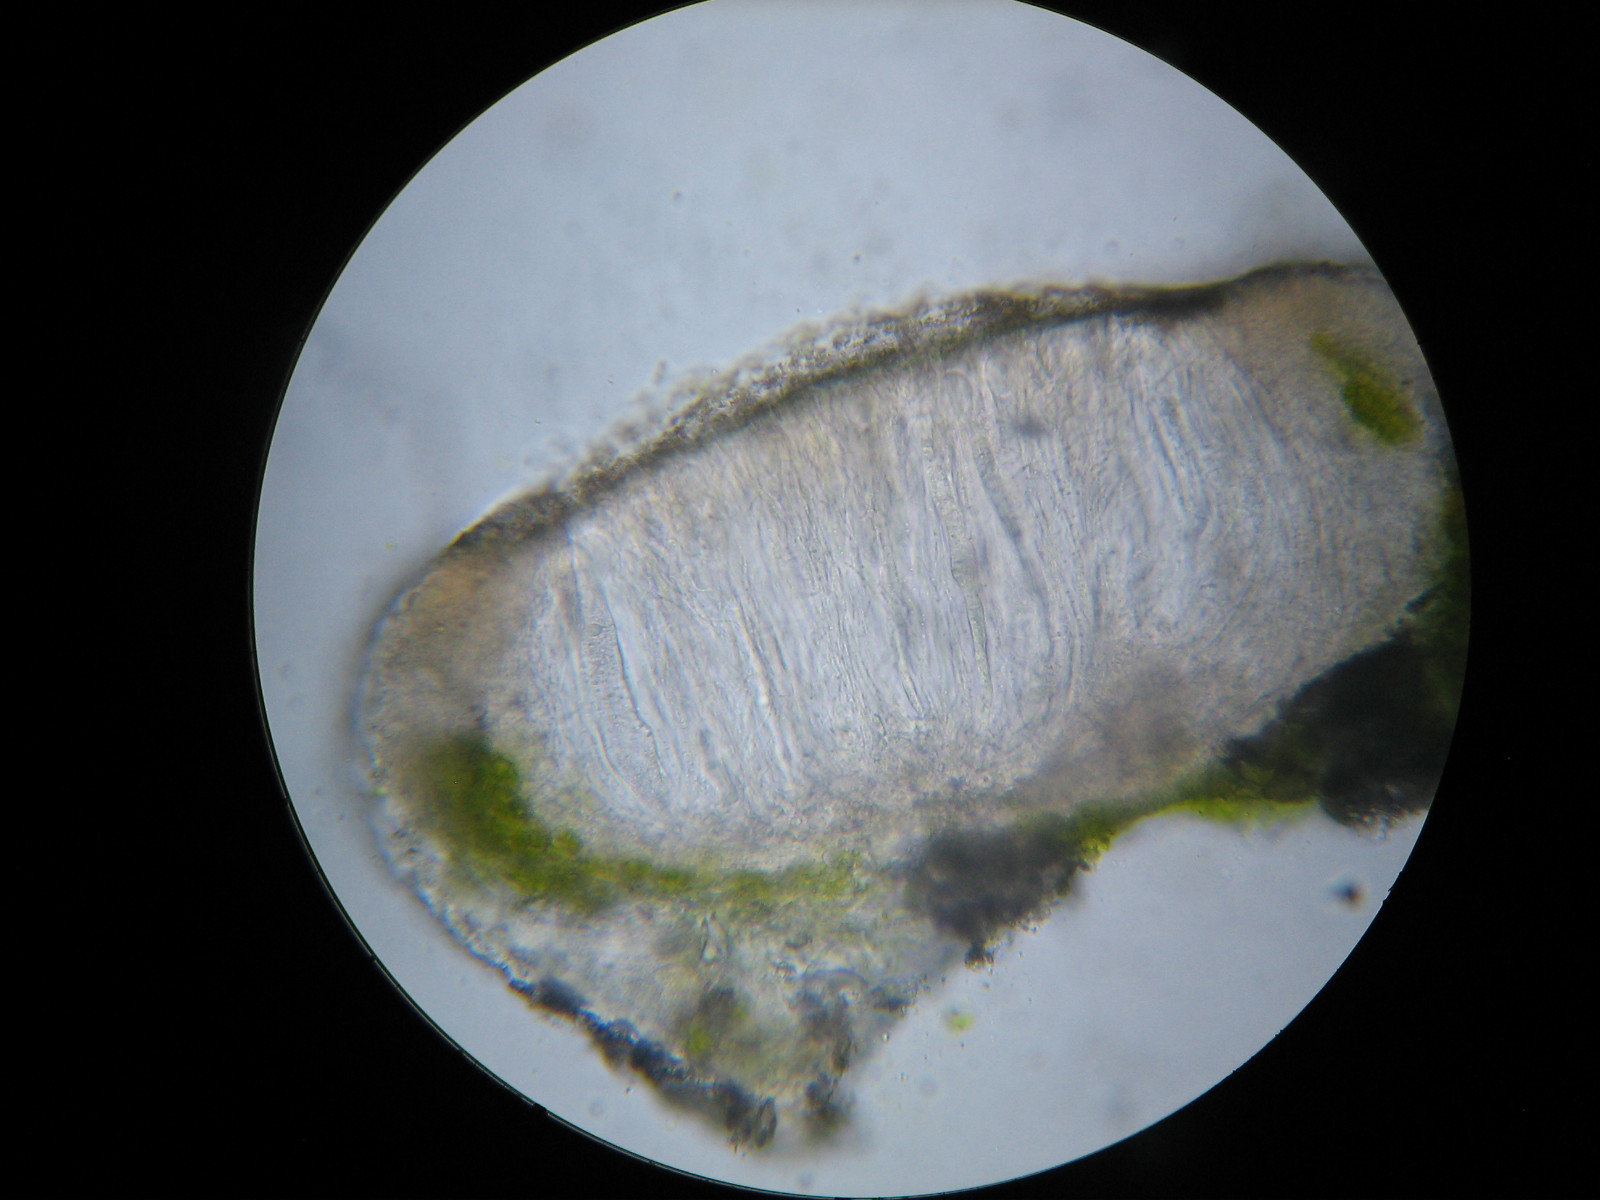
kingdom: Fungi
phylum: Ascomycota
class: Lecanoromycetes
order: Acarosporales
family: Acarosporaceae
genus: Caeruleum
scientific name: Caeruleum heppii
